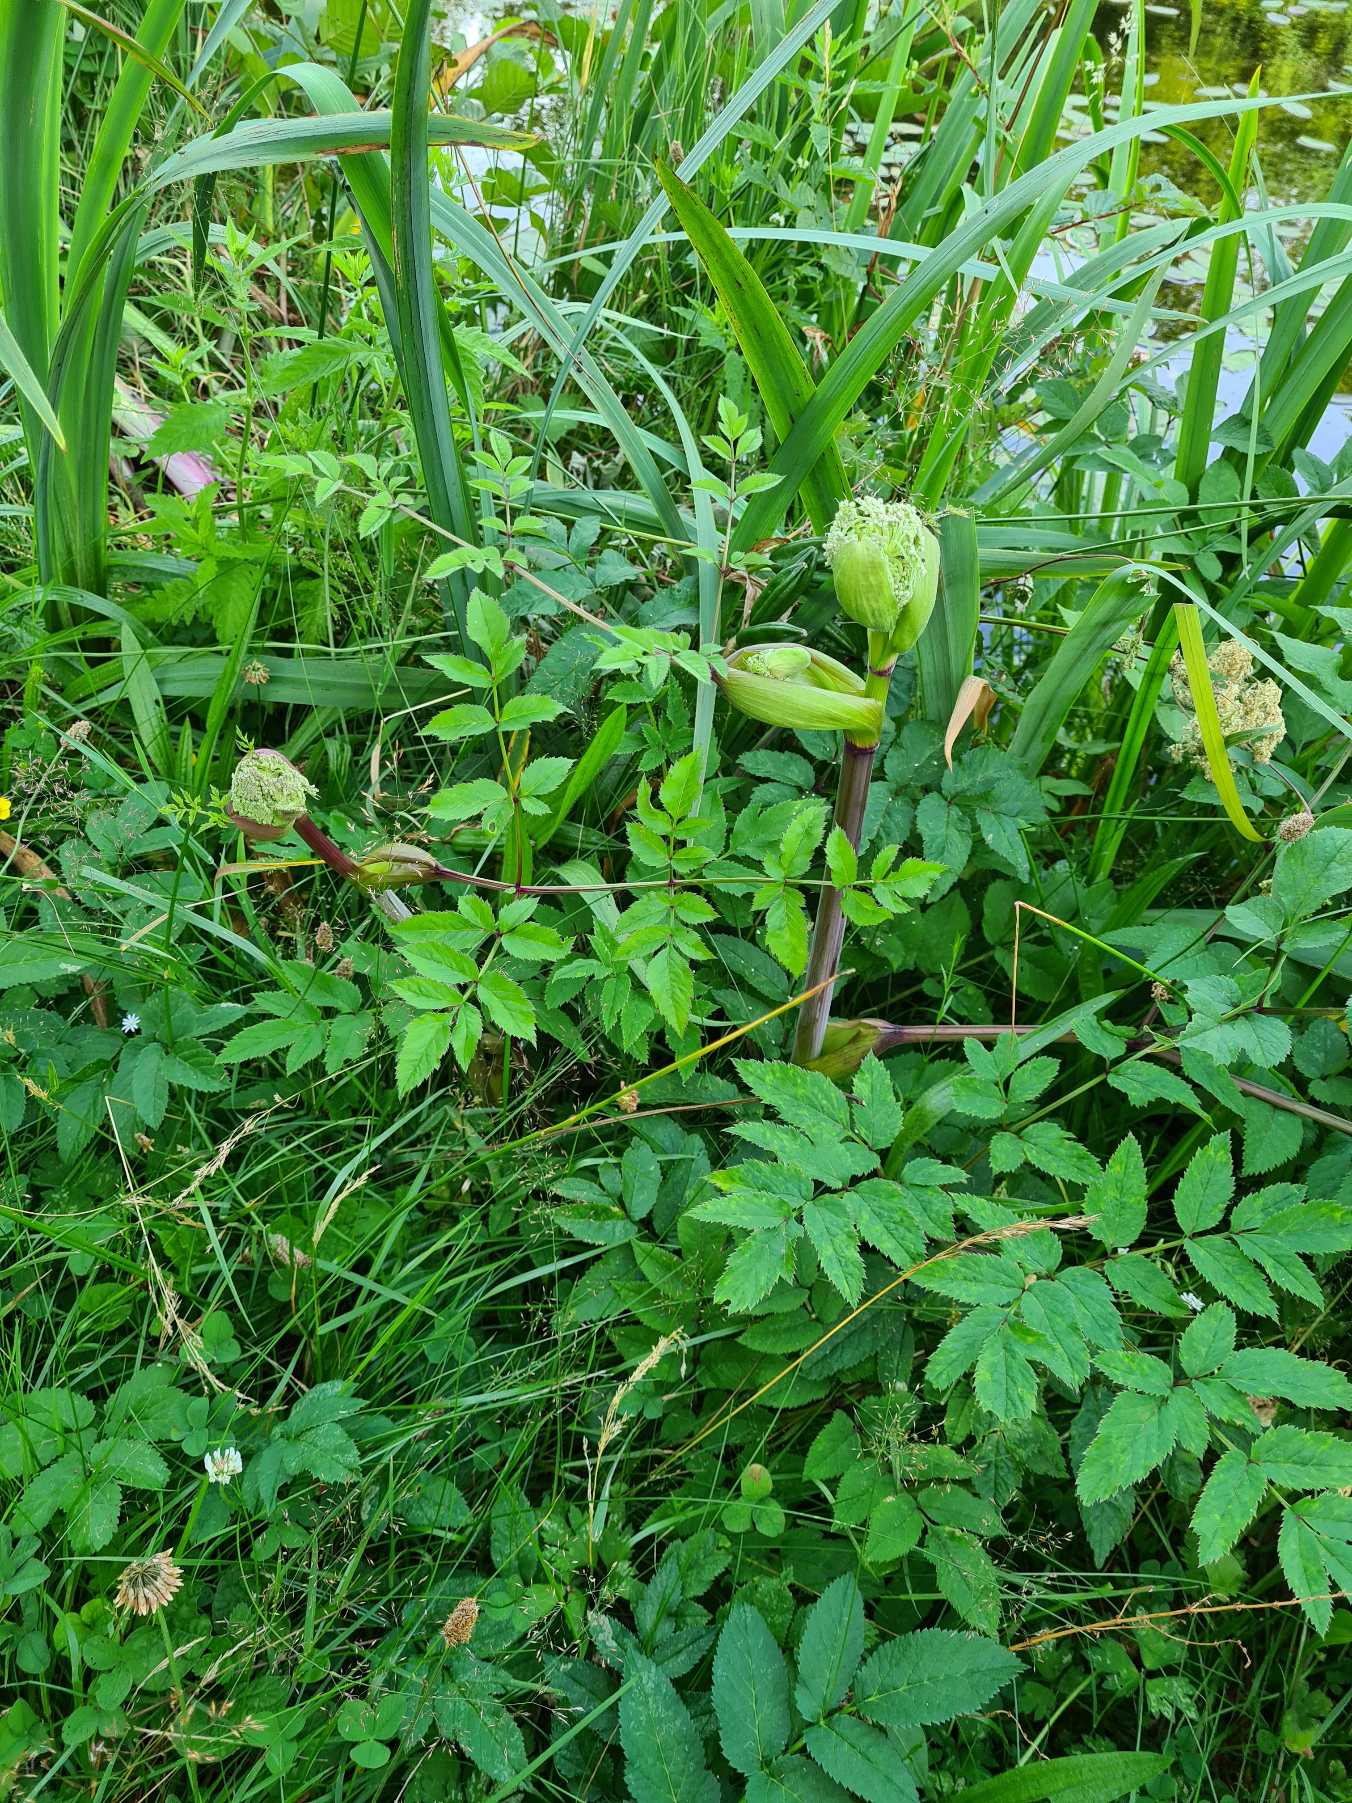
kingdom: Plantae
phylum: Tracheophyta
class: Magnoliopsida
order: Apiales
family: Apiaceae
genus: Angelica
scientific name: Angelica sylvestris
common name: Angelik
